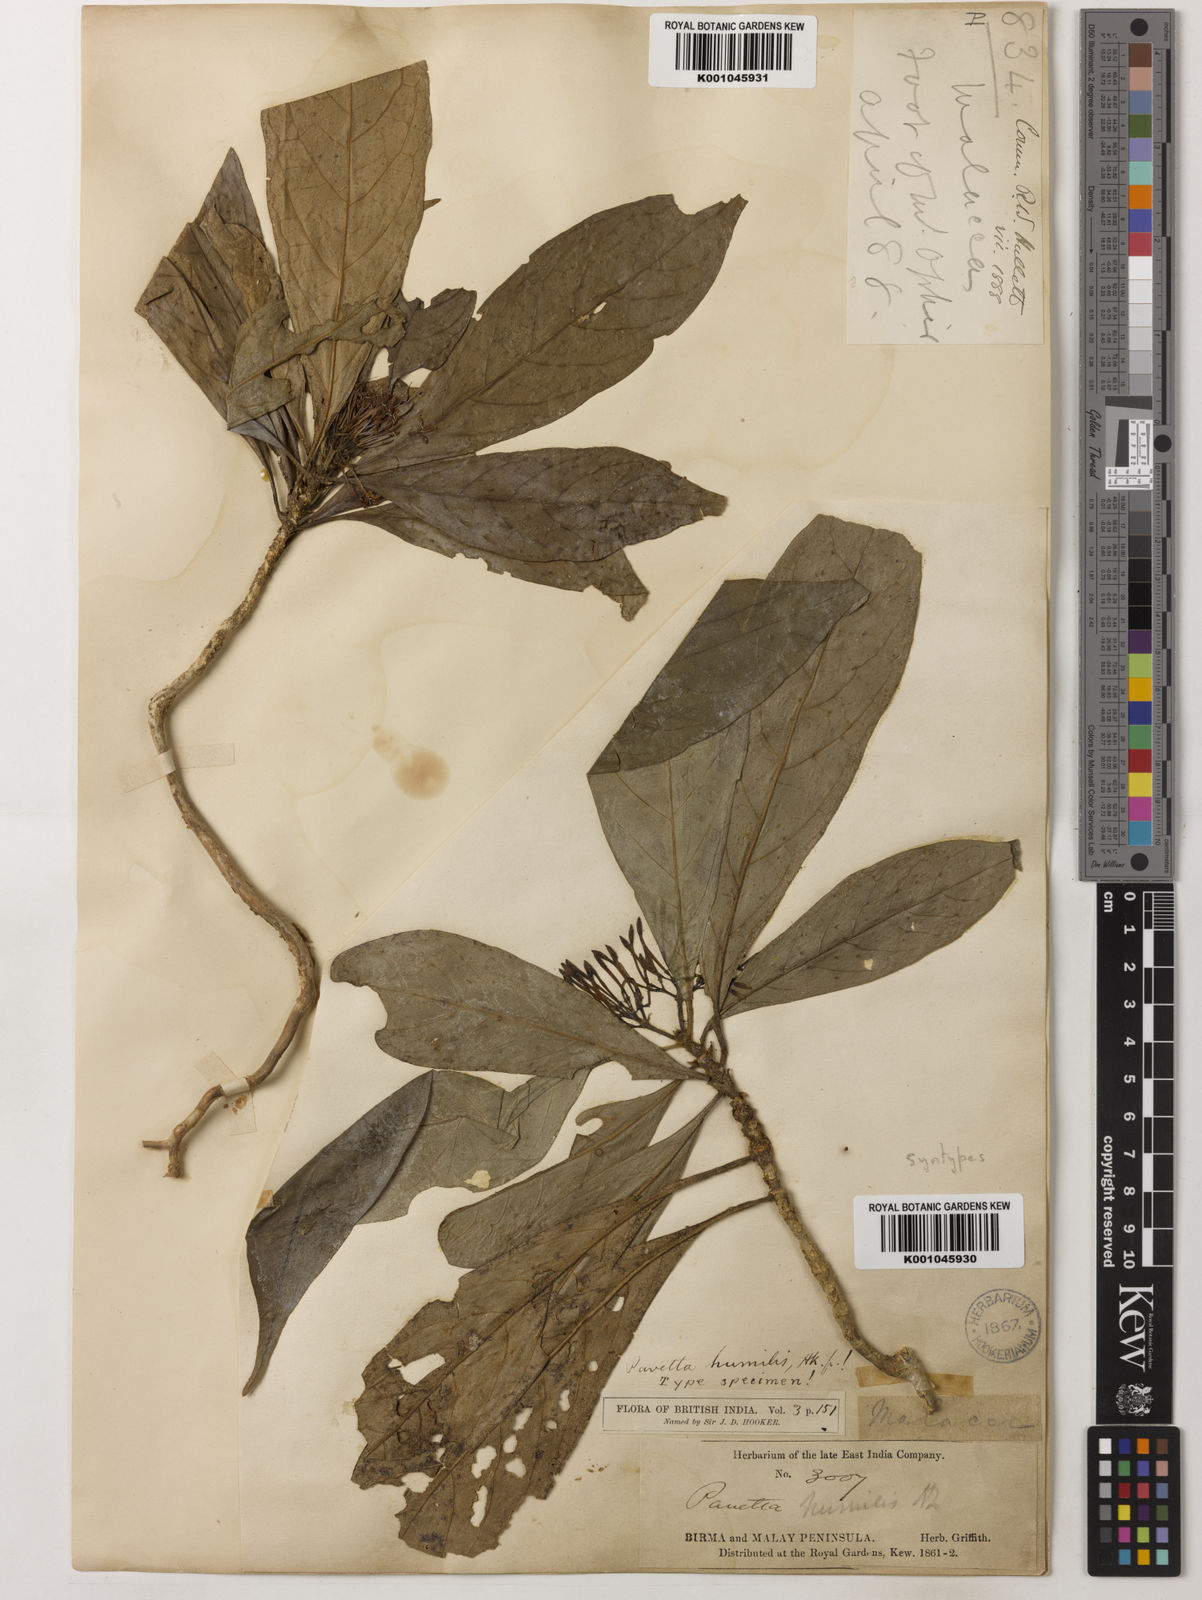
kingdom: Plantae
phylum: Tracheophyta
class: Magnoliopsida
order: Gentianales
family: Rubiaceae
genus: Pavetta
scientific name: Pavetta humilis
